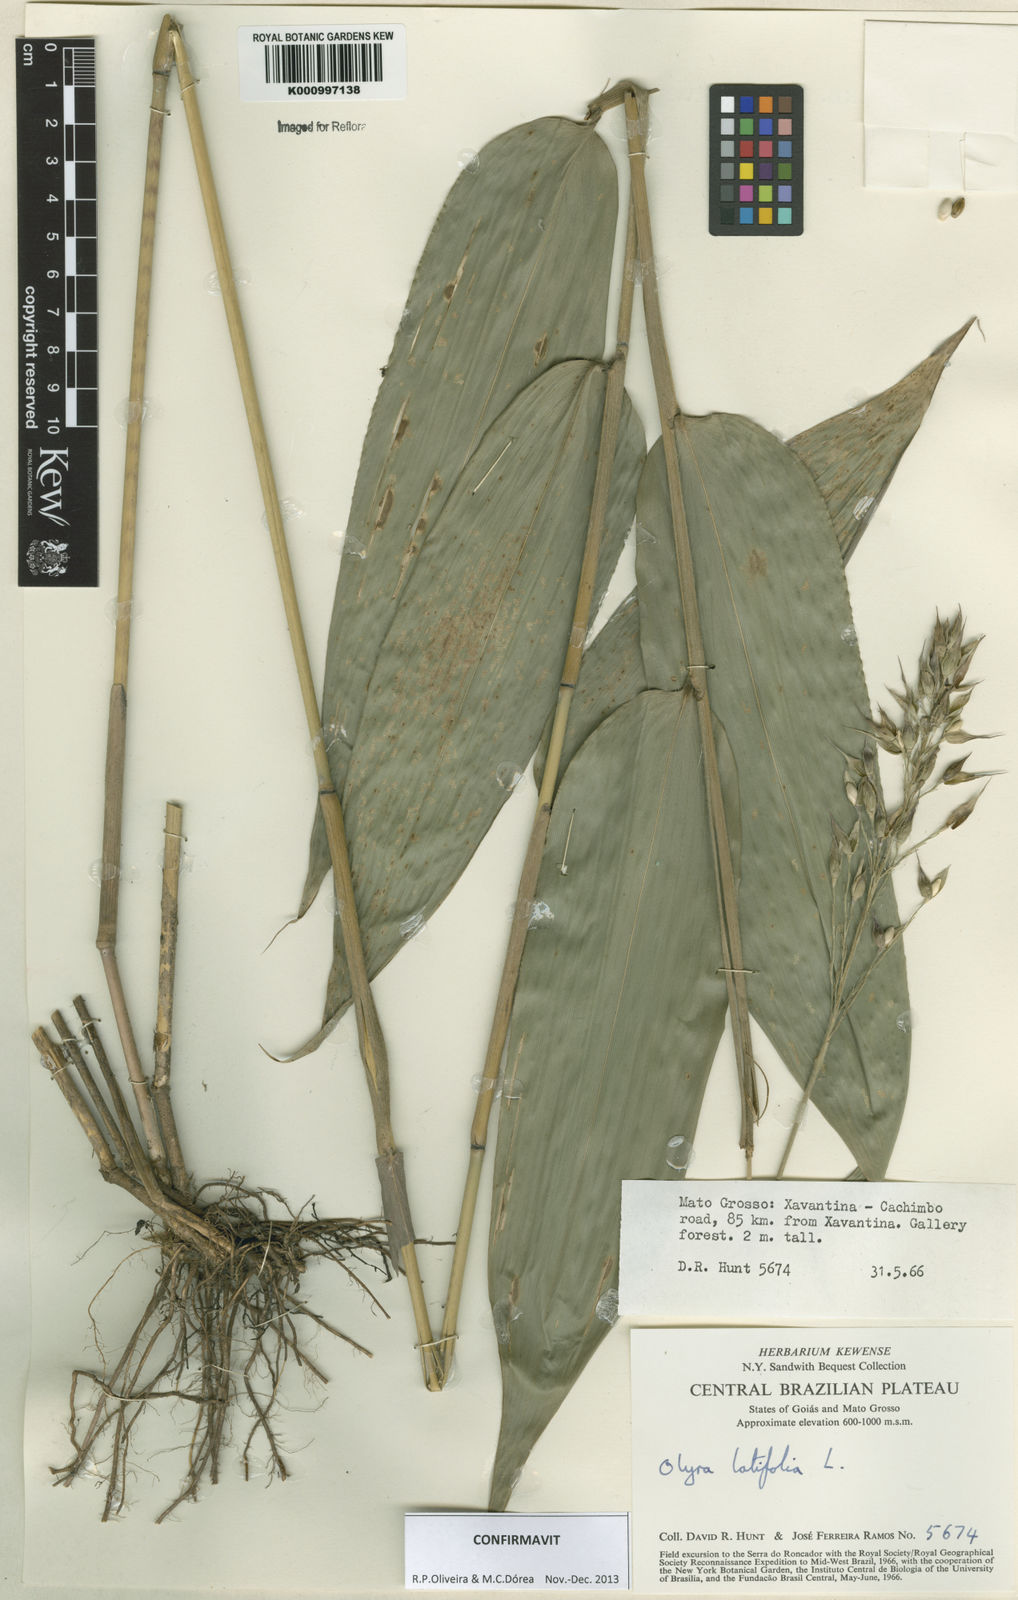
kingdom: Plantae
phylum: Tracheophyta
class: Liliopsida
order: Poales
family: Poaceae
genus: Olyra
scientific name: Olyra latifolia
